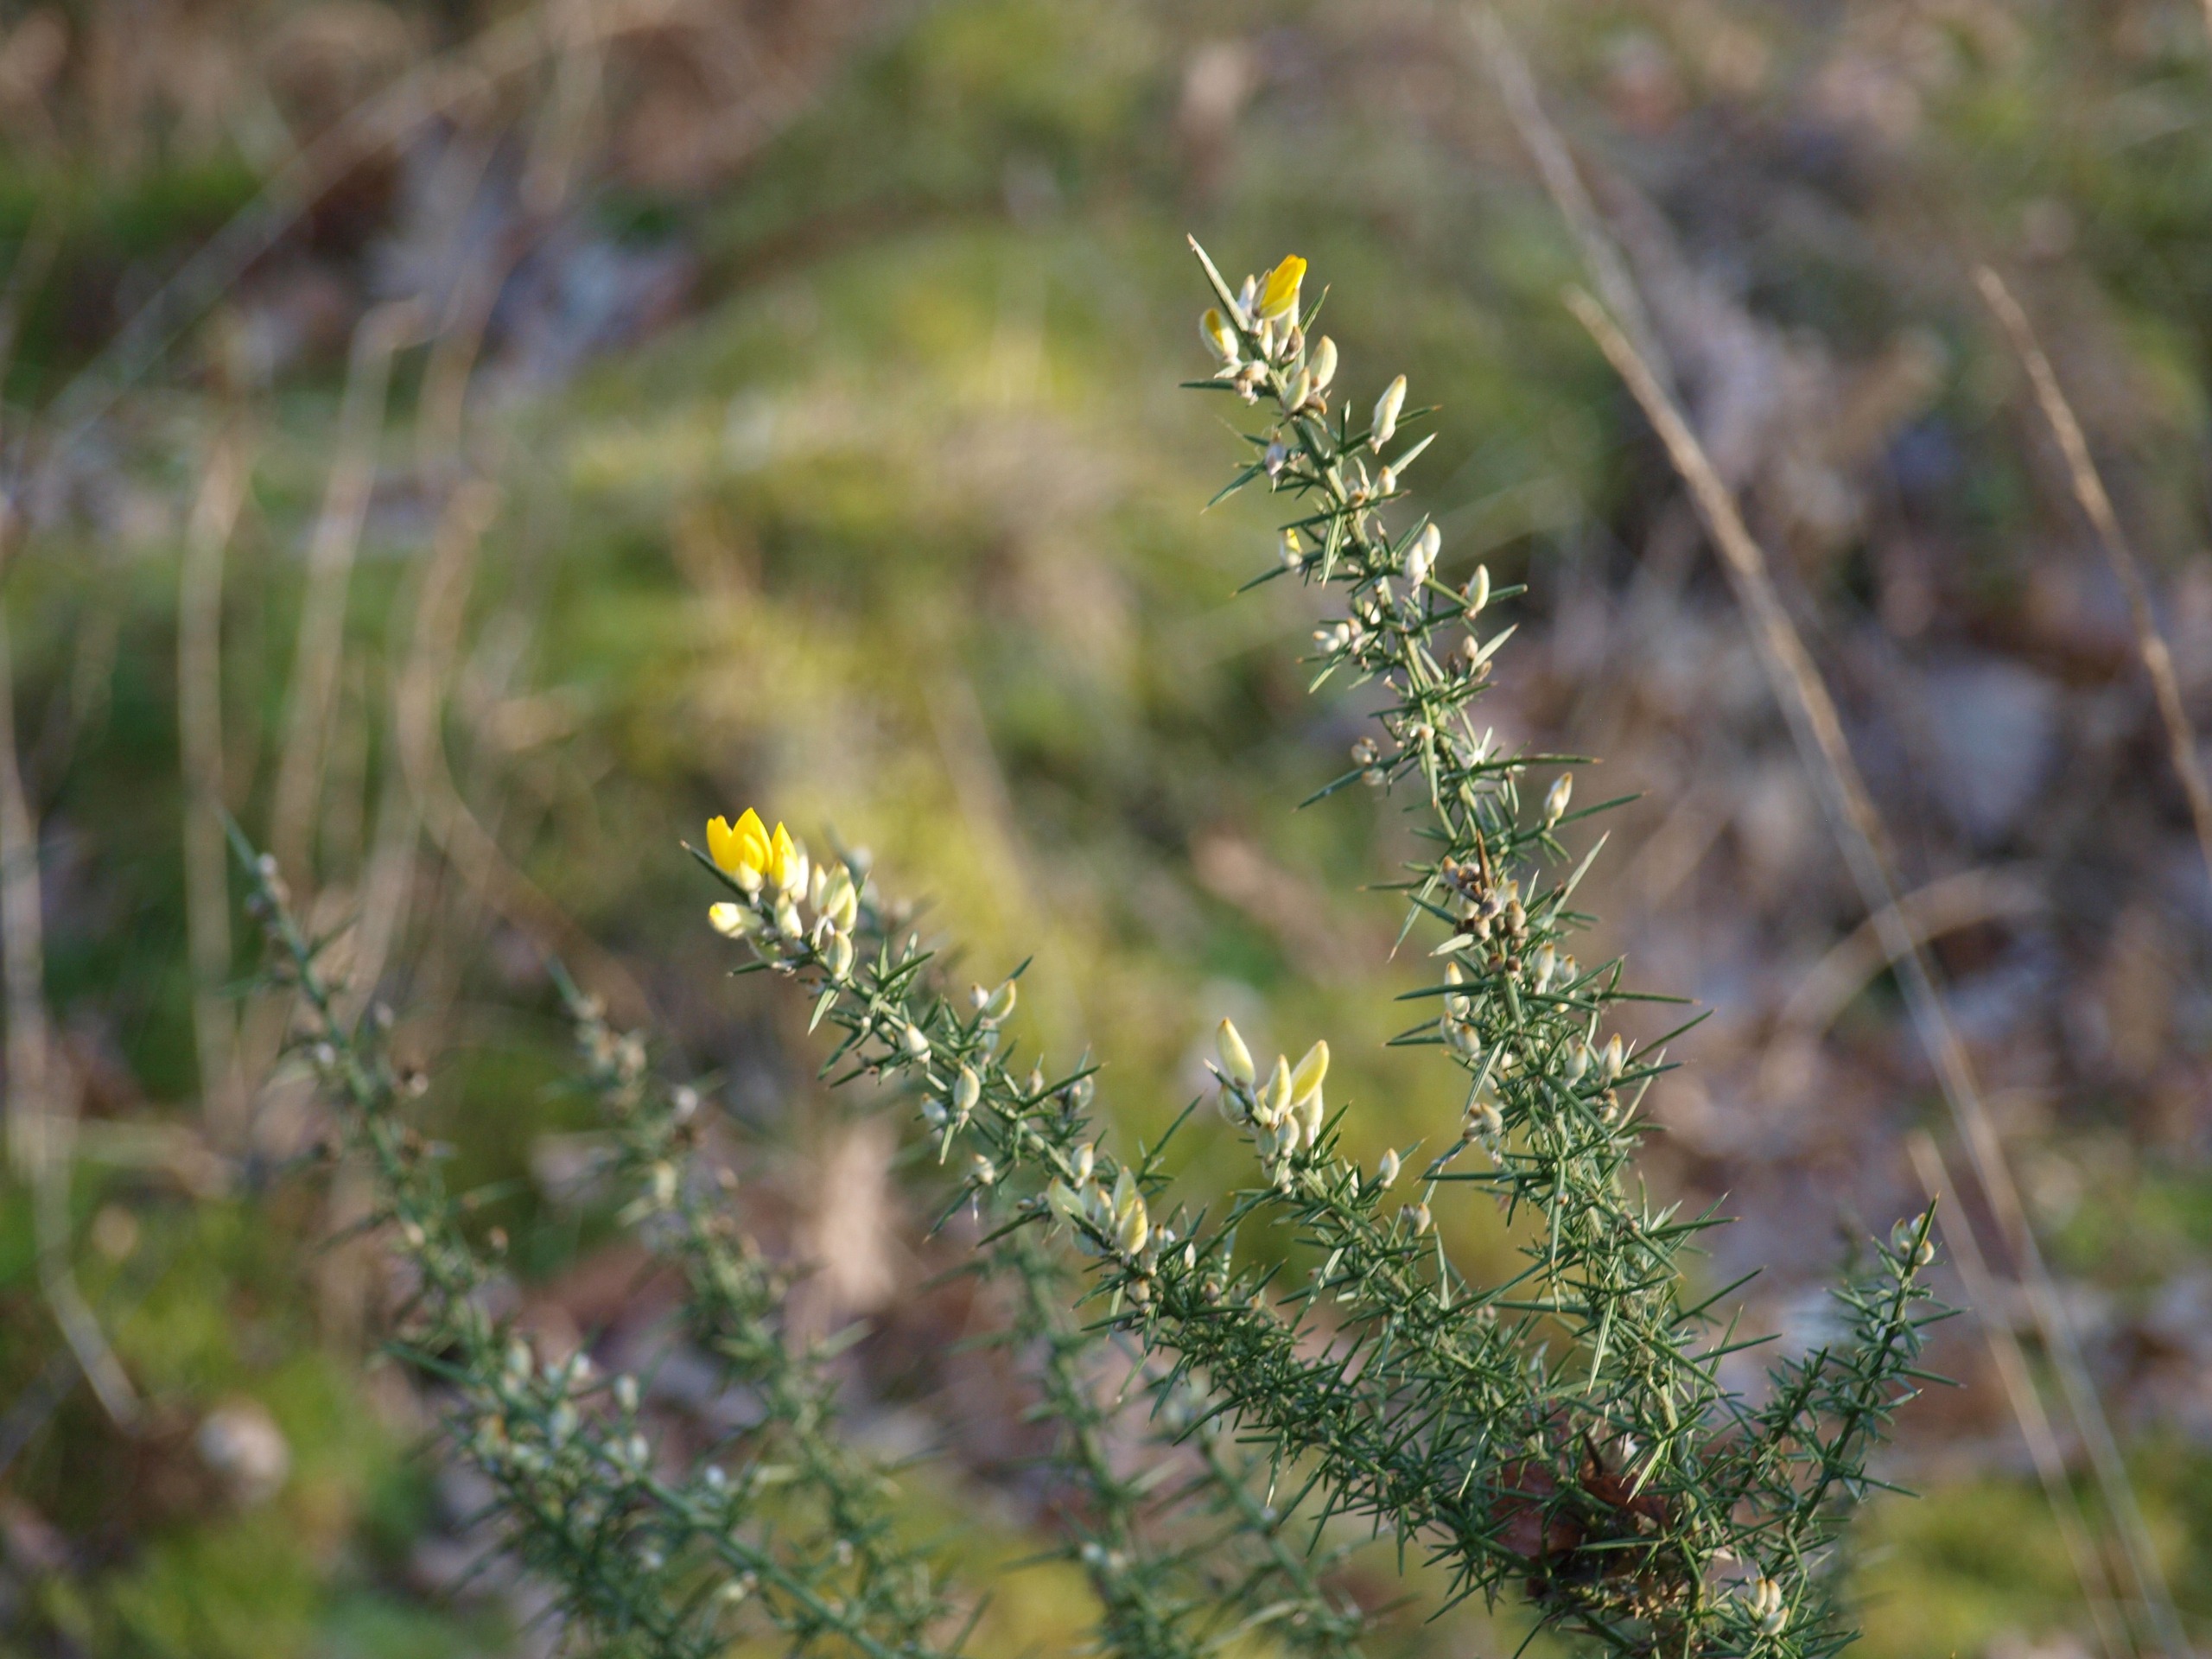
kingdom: Plantae
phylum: Tracheophyta
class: Magnoliopsida
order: Fabales
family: Fabaceae
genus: Ulex
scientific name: Ulex europaeus
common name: Tornblad
